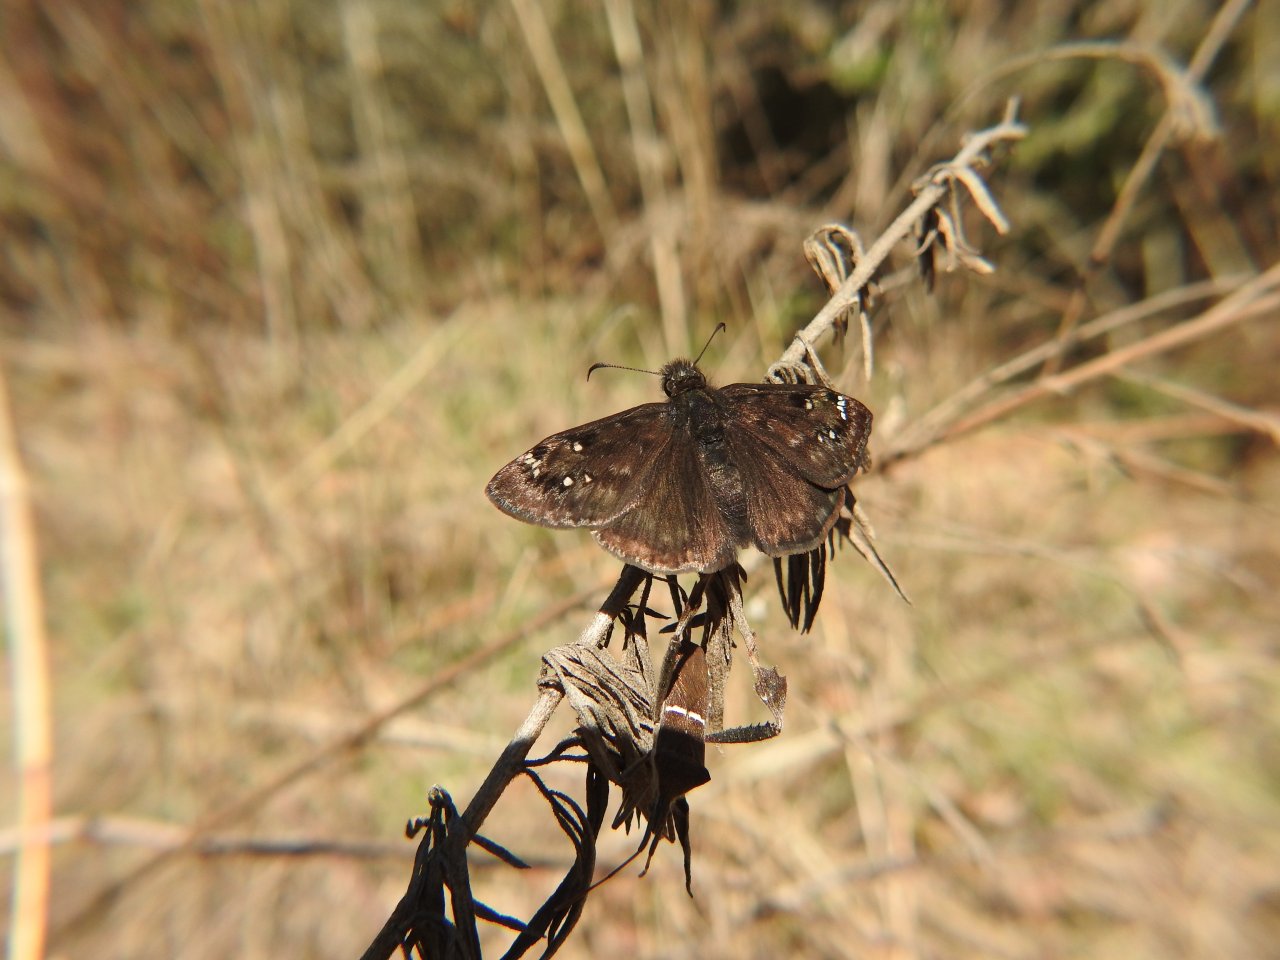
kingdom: Animalia
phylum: Arthropoda
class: Insecta
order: Lepidoptera
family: Hesperiidae
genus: Gesta
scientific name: Gesta
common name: Juvenal's Duskywing
